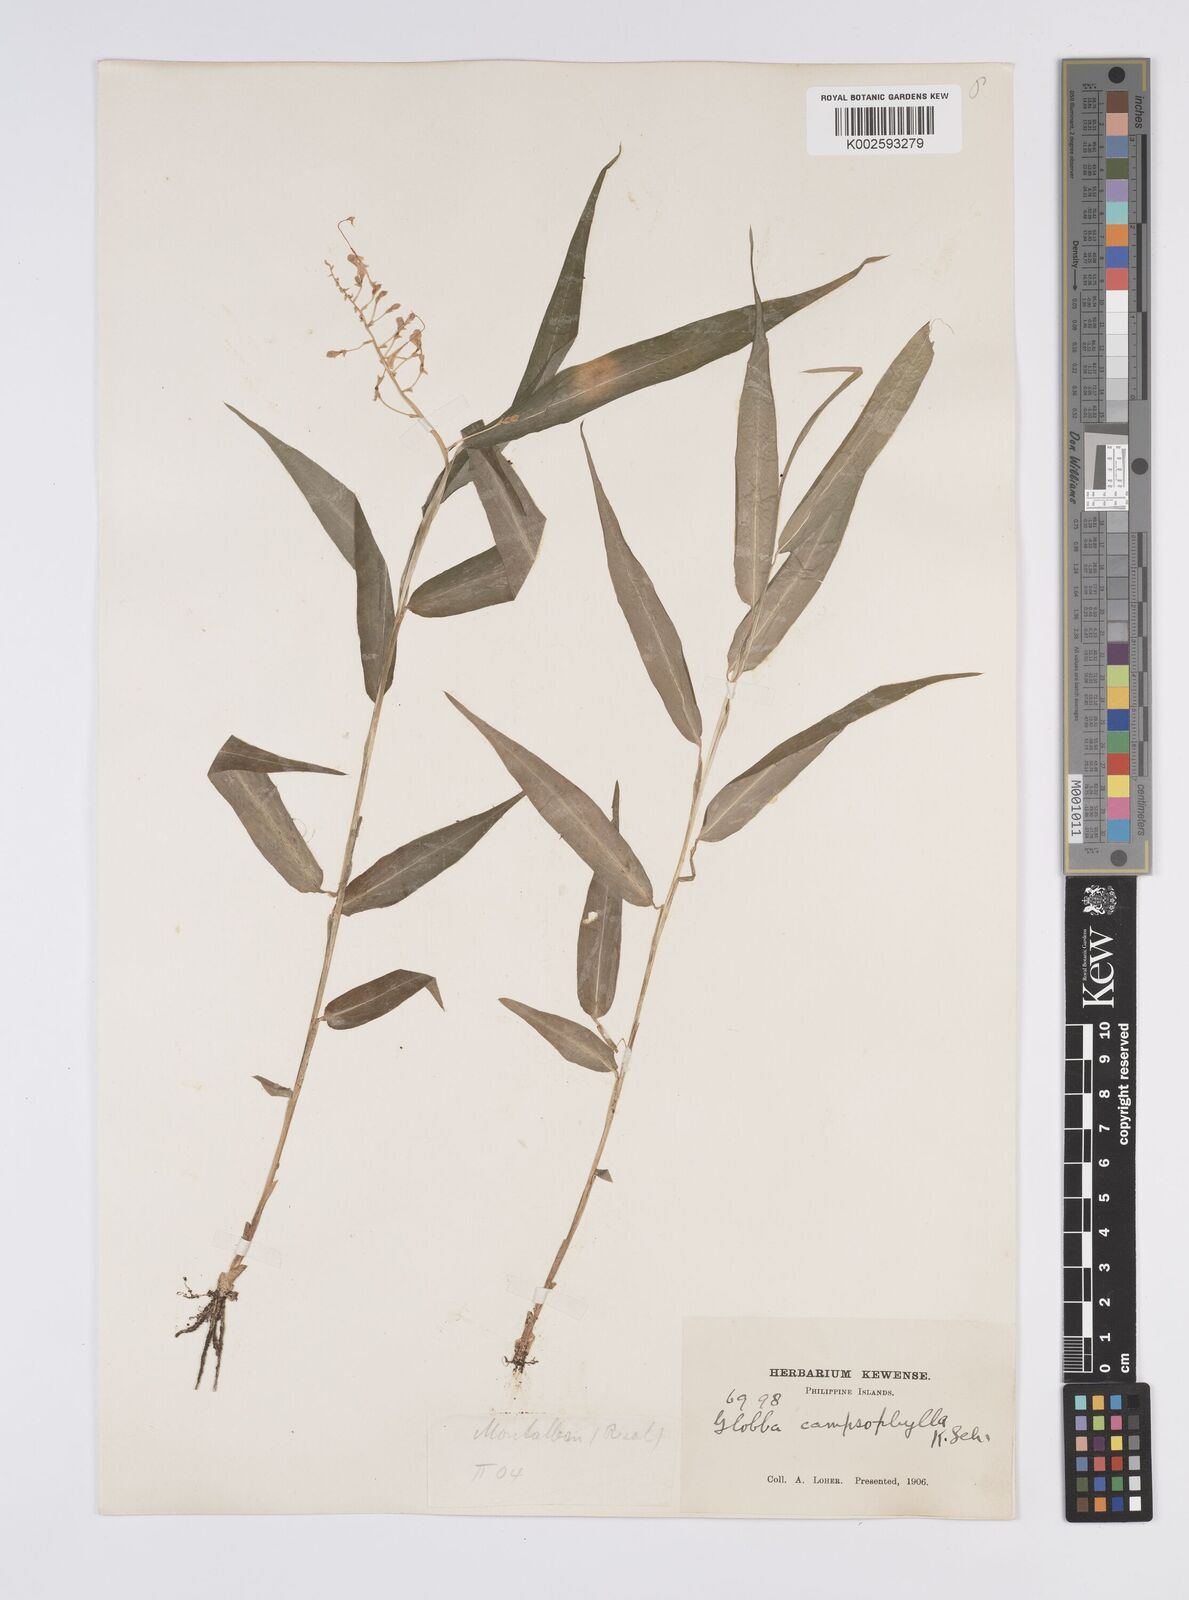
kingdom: Plantae
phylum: Tracheophyta
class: Liliopsida
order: Zingiberales
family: Zingiberaceae
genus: Globba
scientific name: Globba campsophylla
